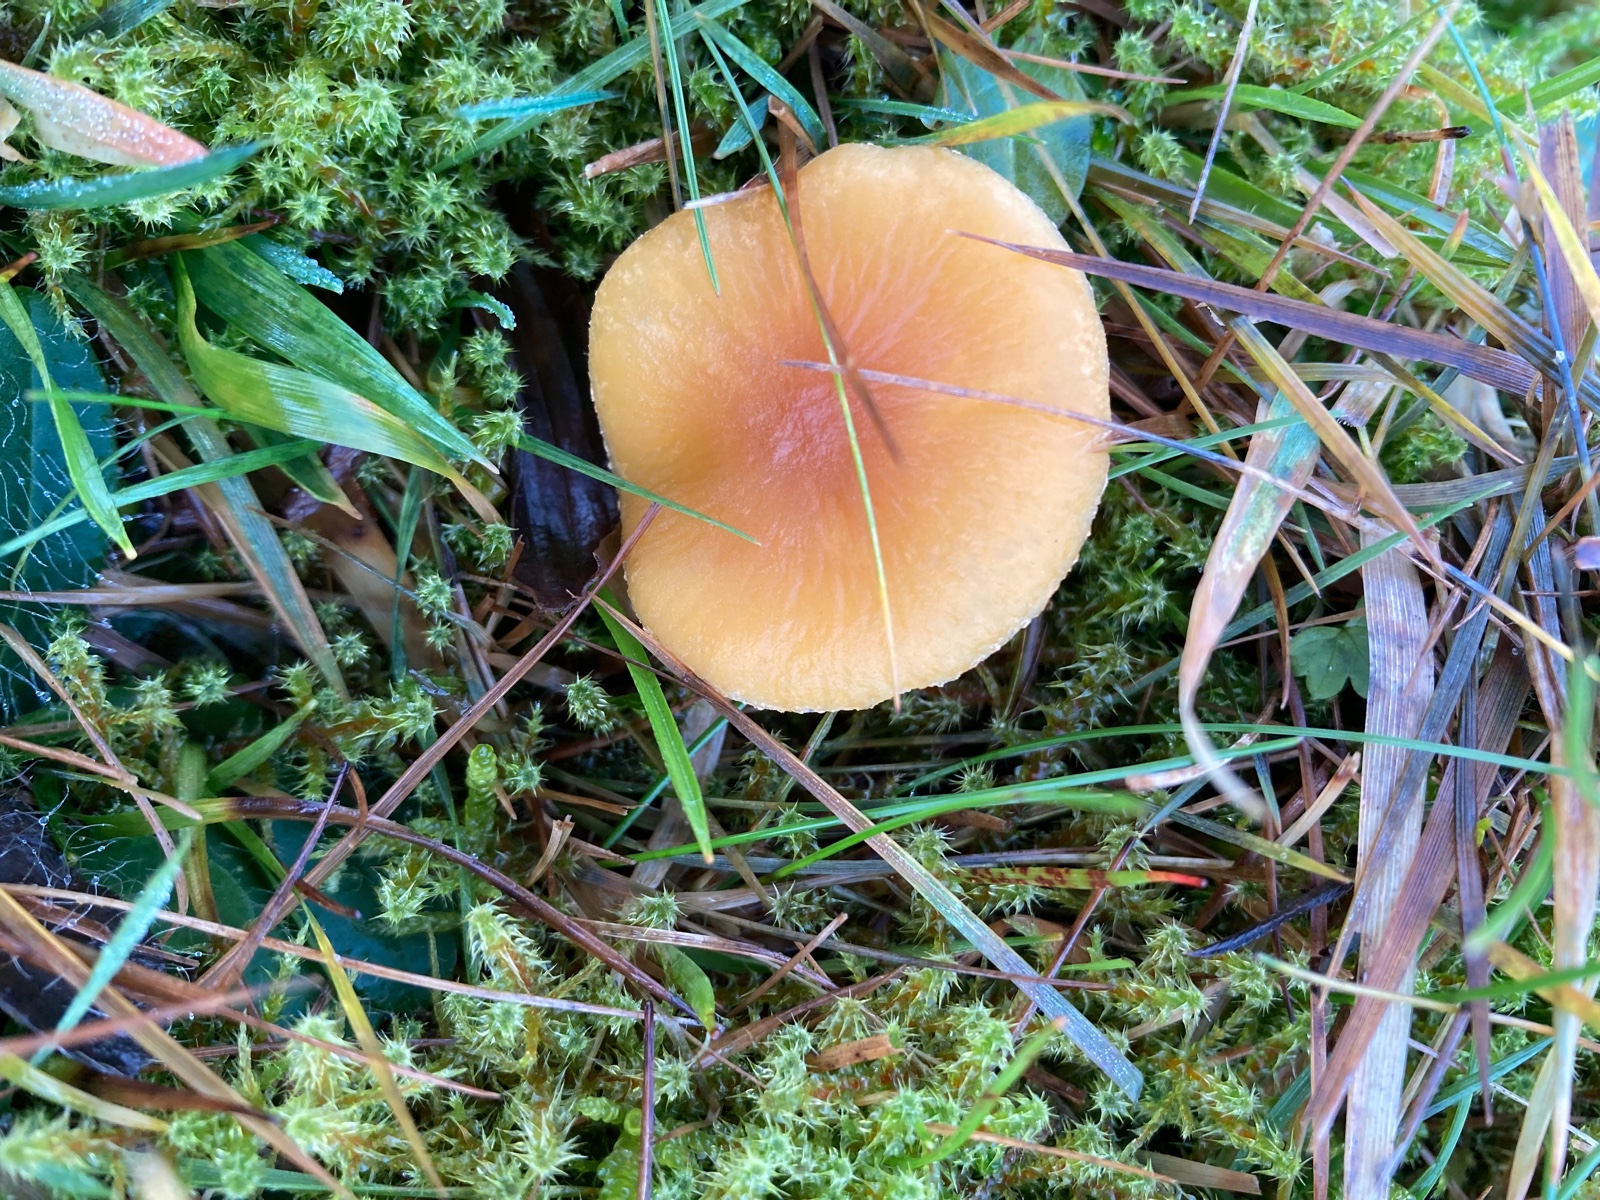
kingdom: Fungi
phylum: Basidiomycota
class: Agaricomycetes
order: Agaricales
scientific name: Agaricales
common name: champignonordenen
